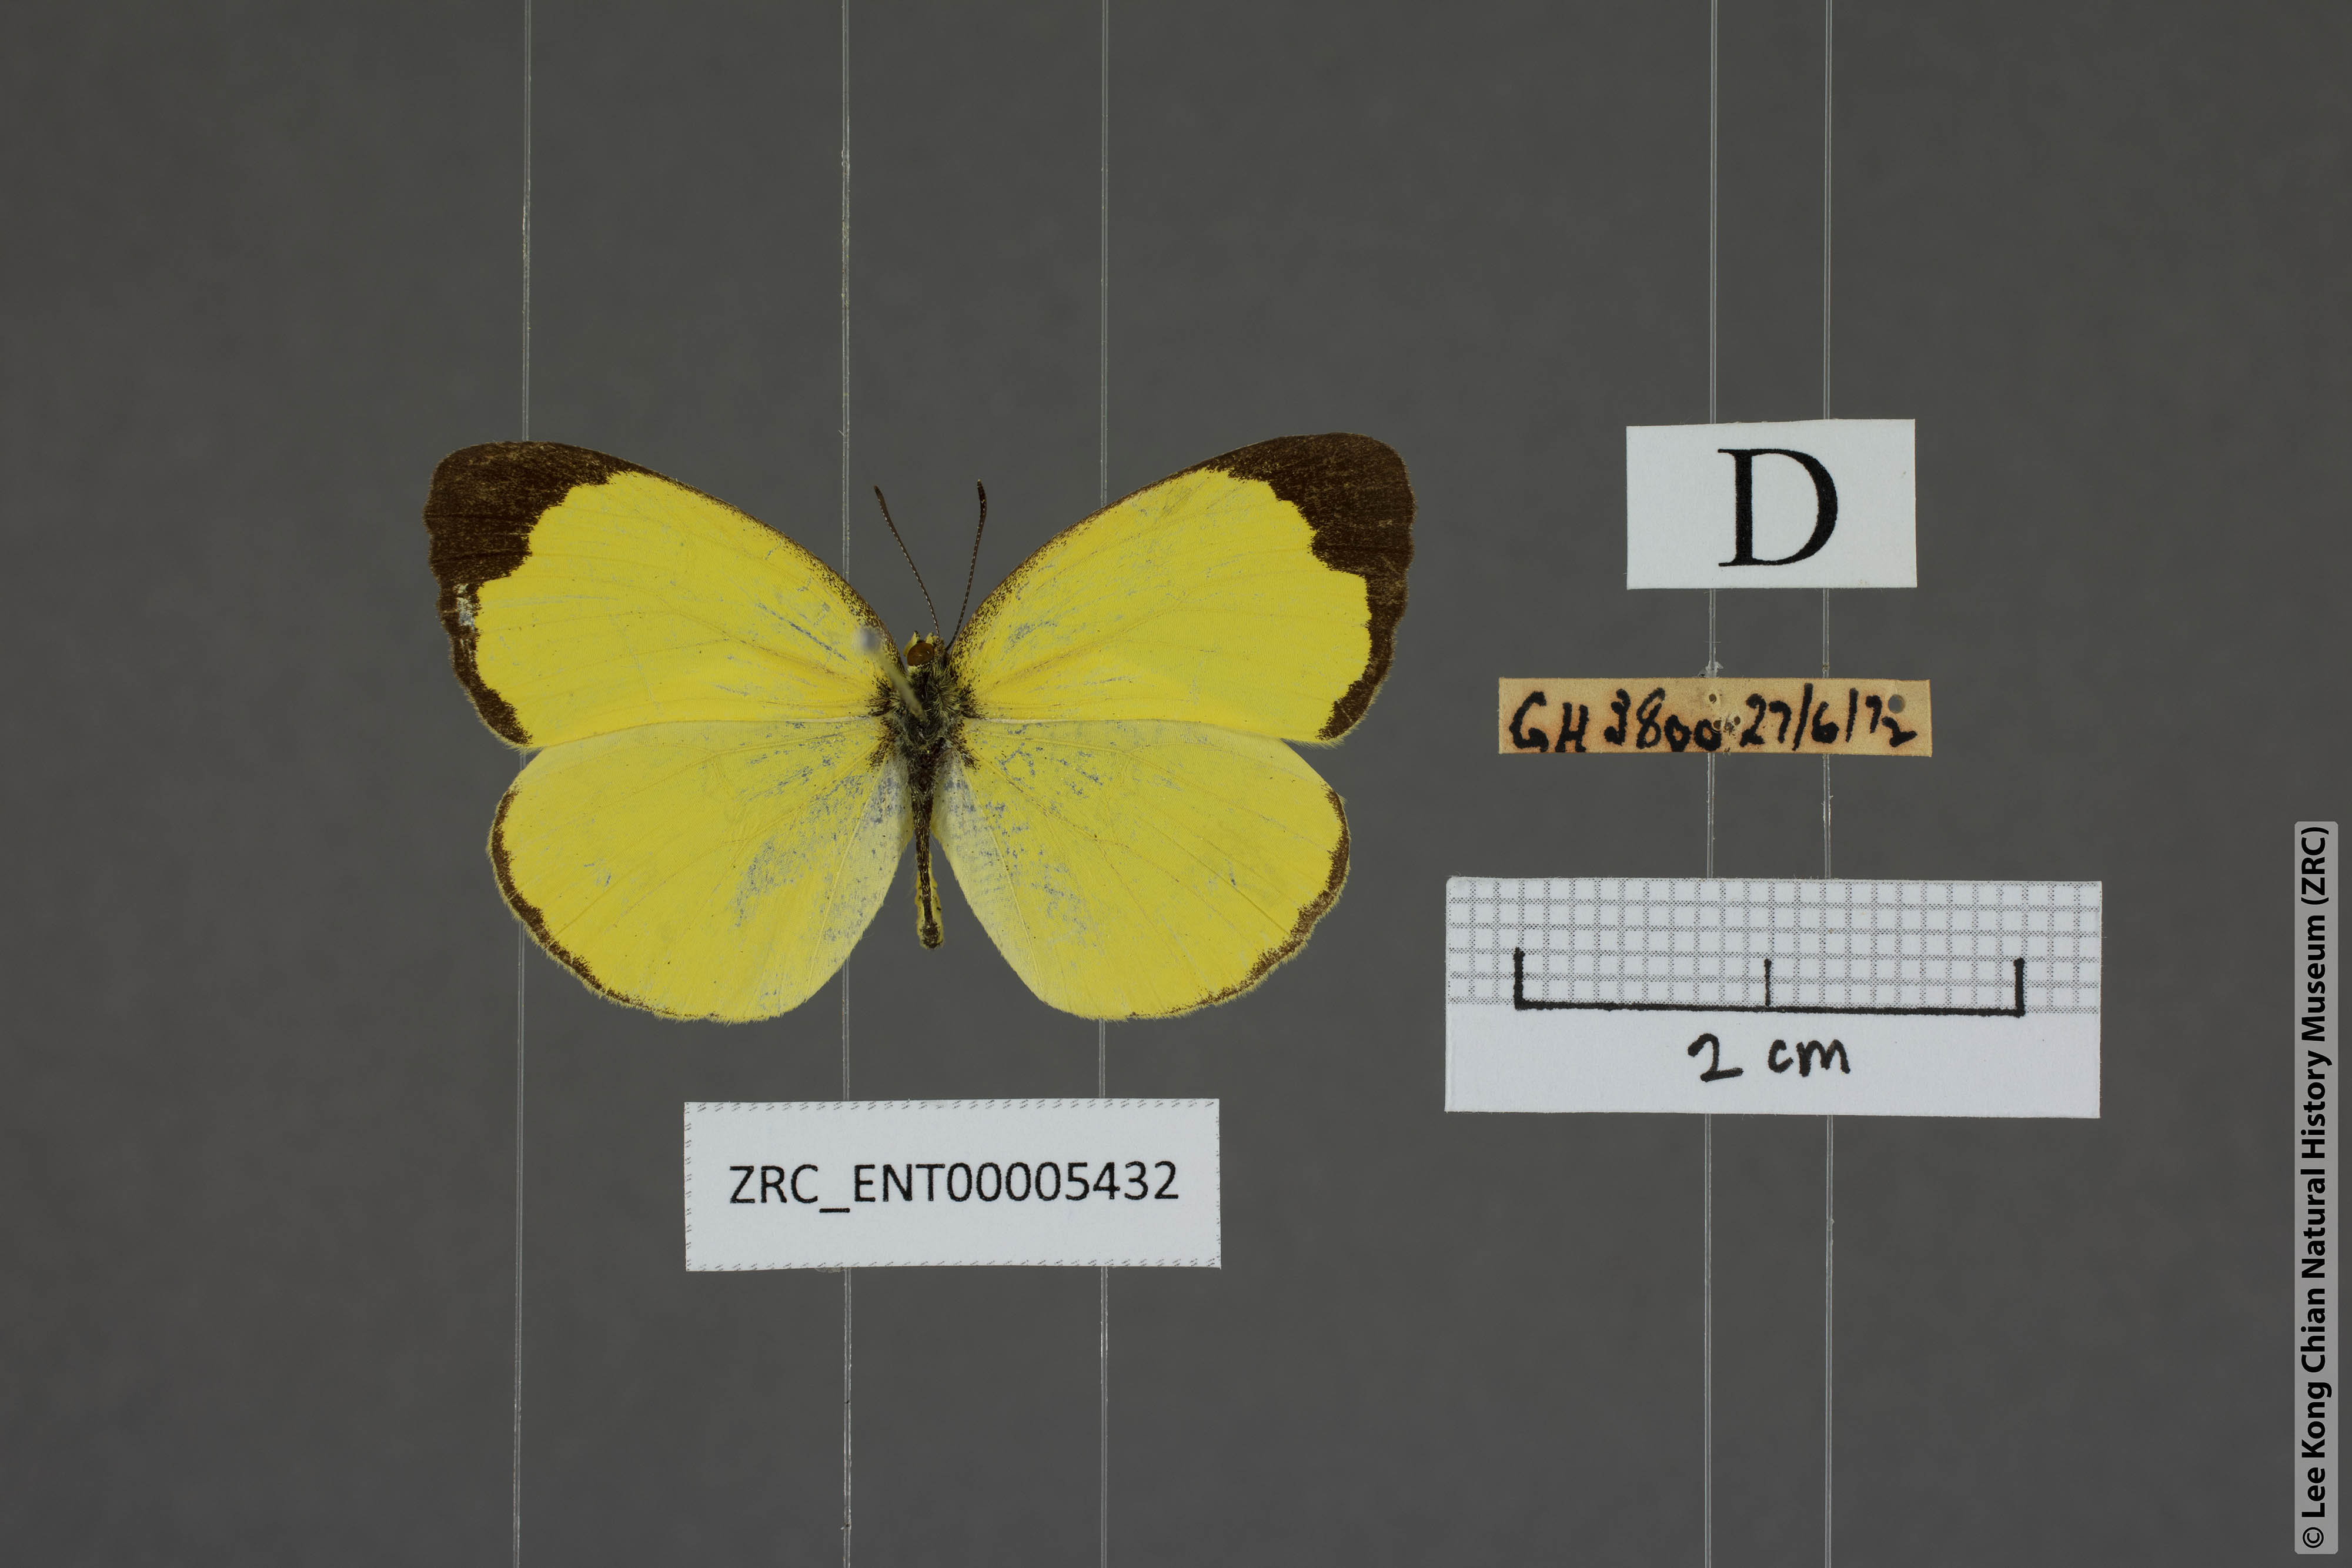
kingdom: Animalia
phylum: Arthropoda
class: Insecta
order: Lepidoptera
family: Pieridae
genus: Eurema
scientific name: Eurema blanda
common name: Three-spot grass yellow
